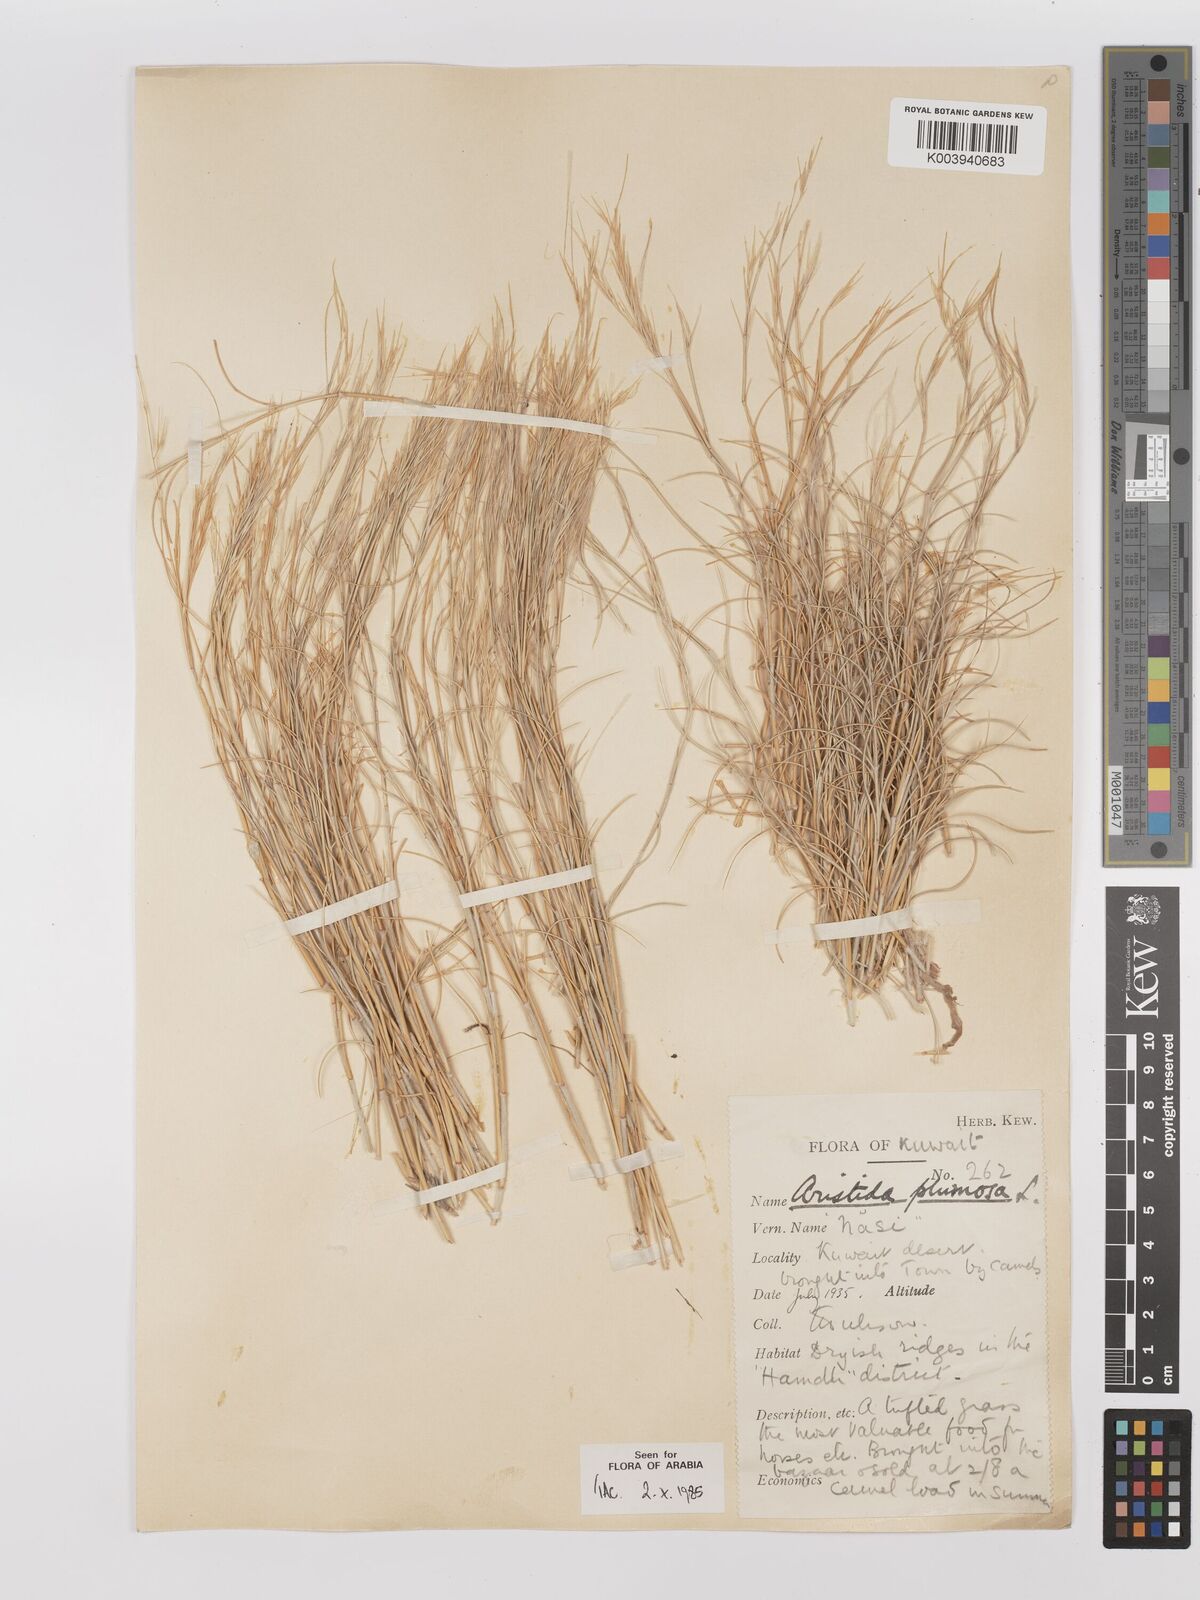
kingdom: Plantae
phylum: Tracheophyta
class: Liliopsida
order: Poales
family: Poaceae
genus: Stipagrostis
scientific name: Stipagrostis plumosa
